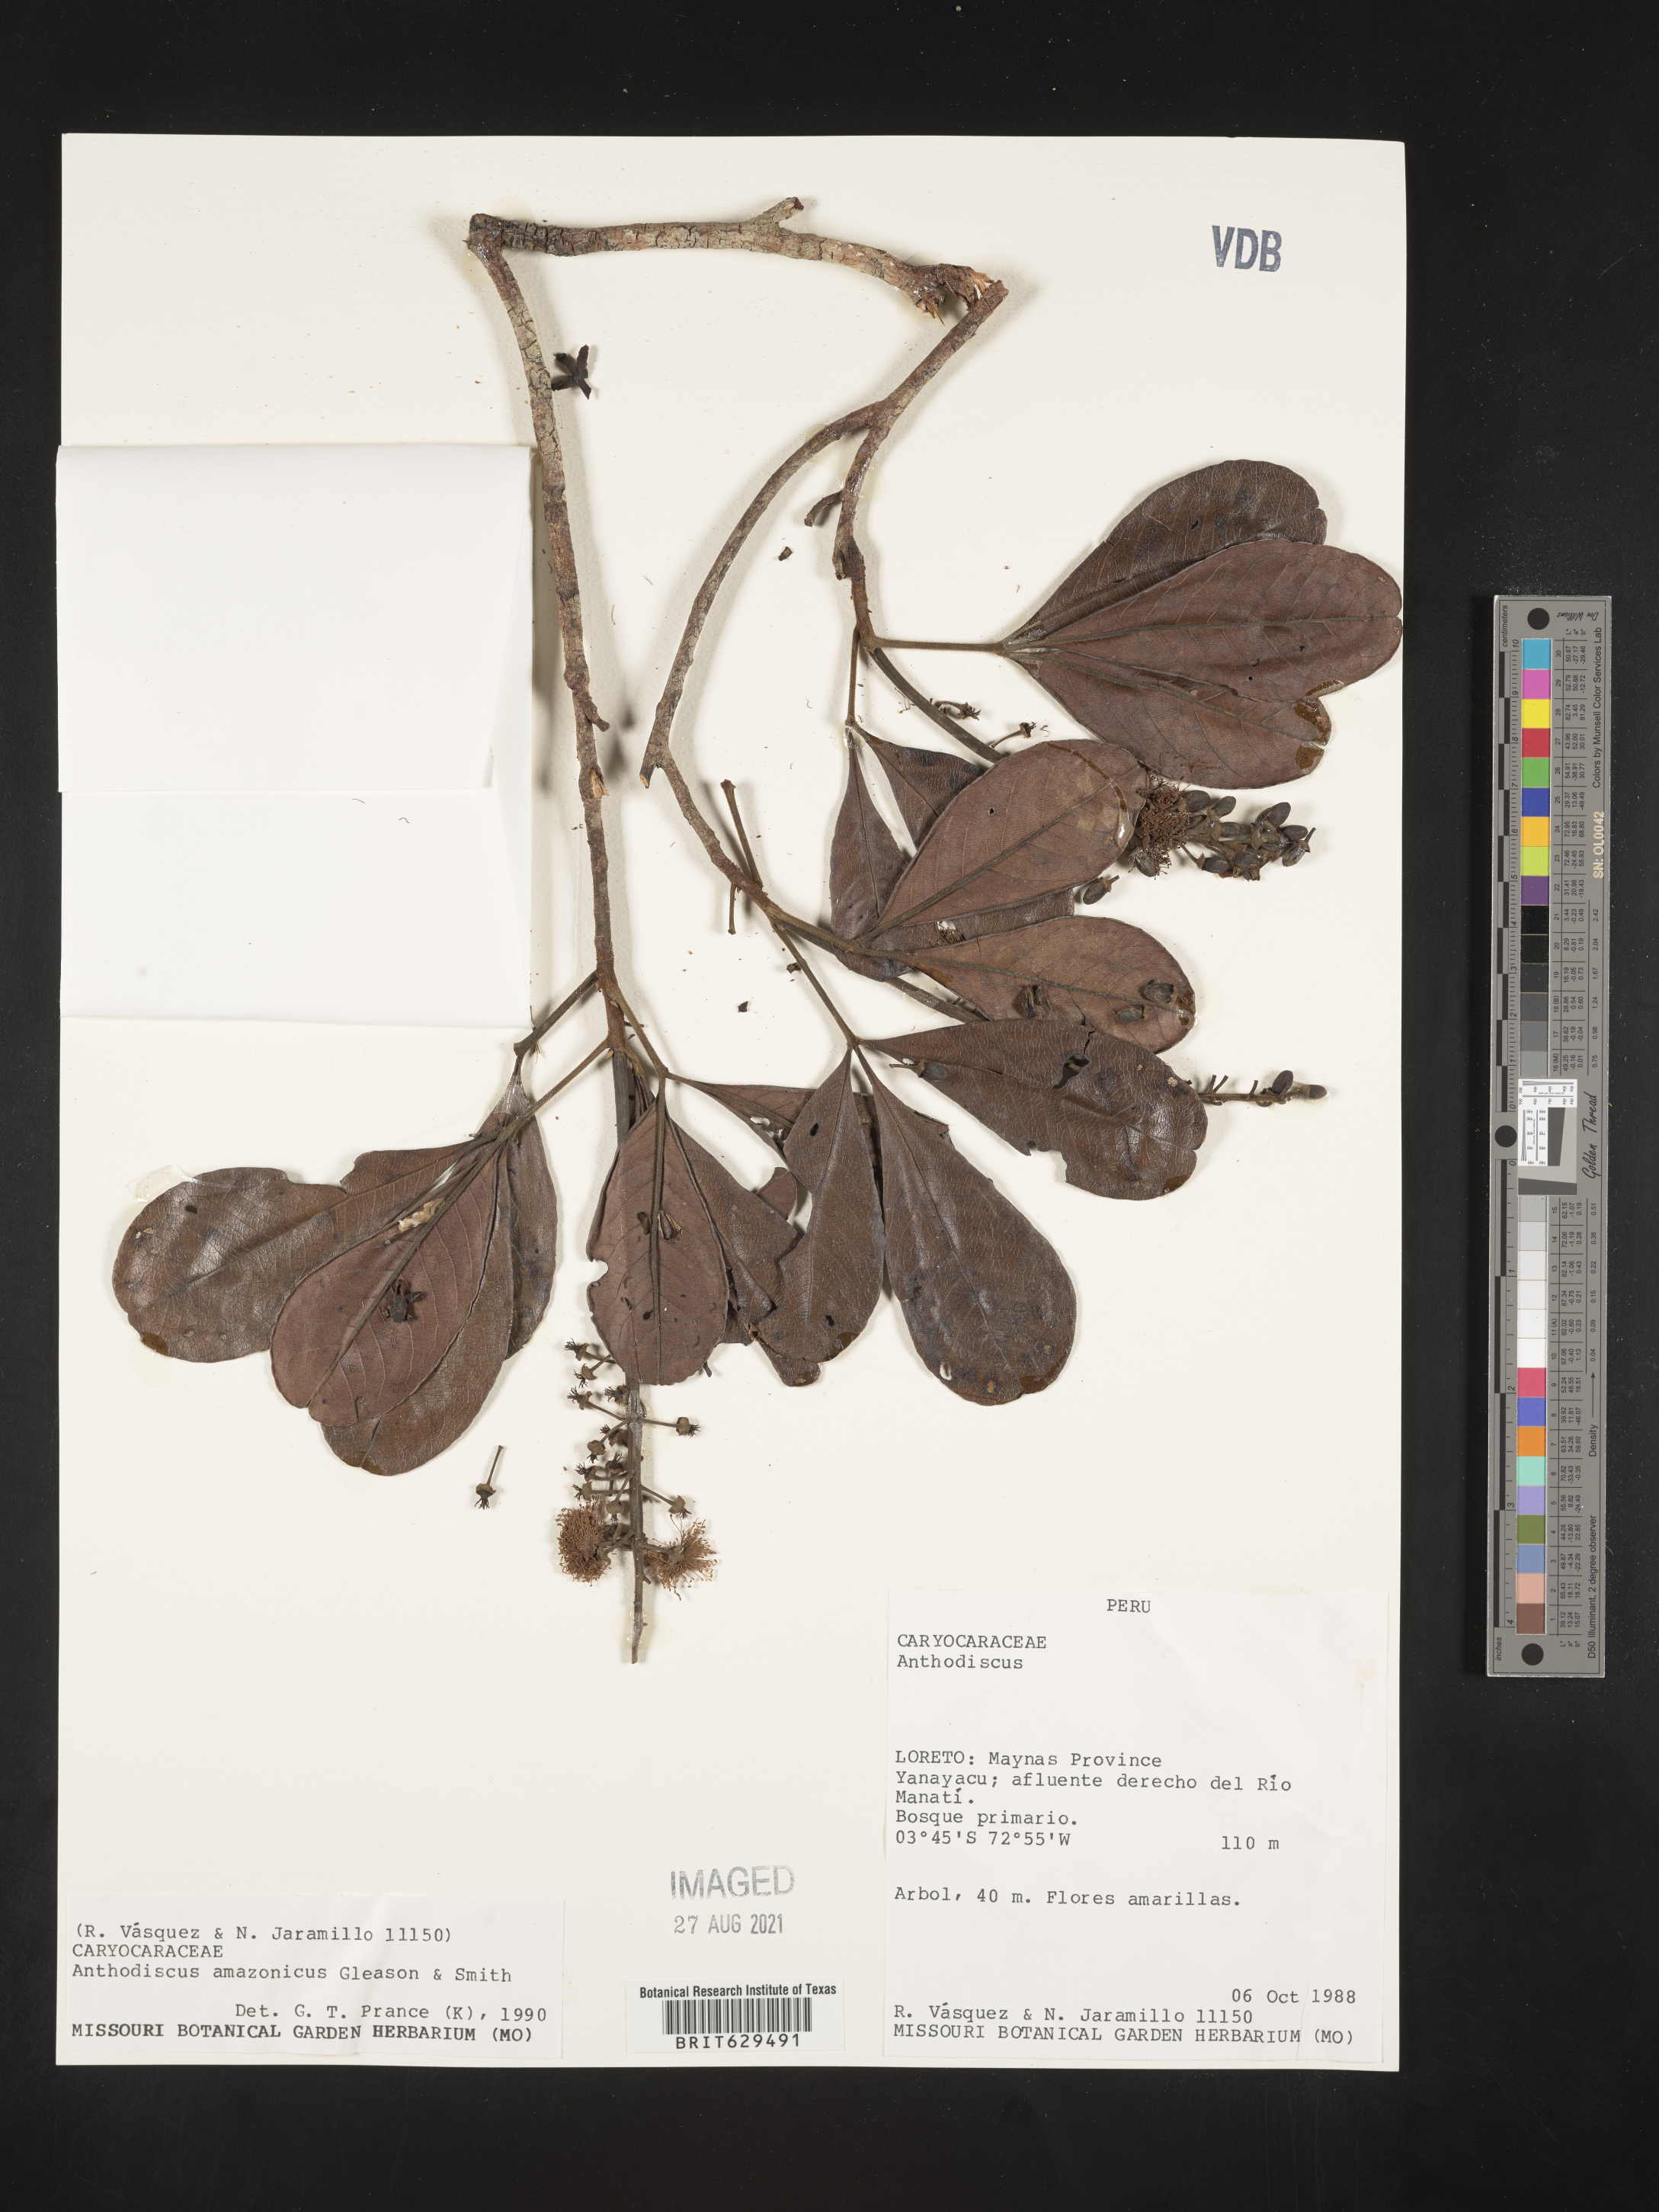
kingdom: Plantae
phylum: Tracheophyta
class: Magnoliopsida
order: Malpighiales
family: Caryocaraceae
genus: Anthodiscus
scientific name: Anthodiscus amazonicus
